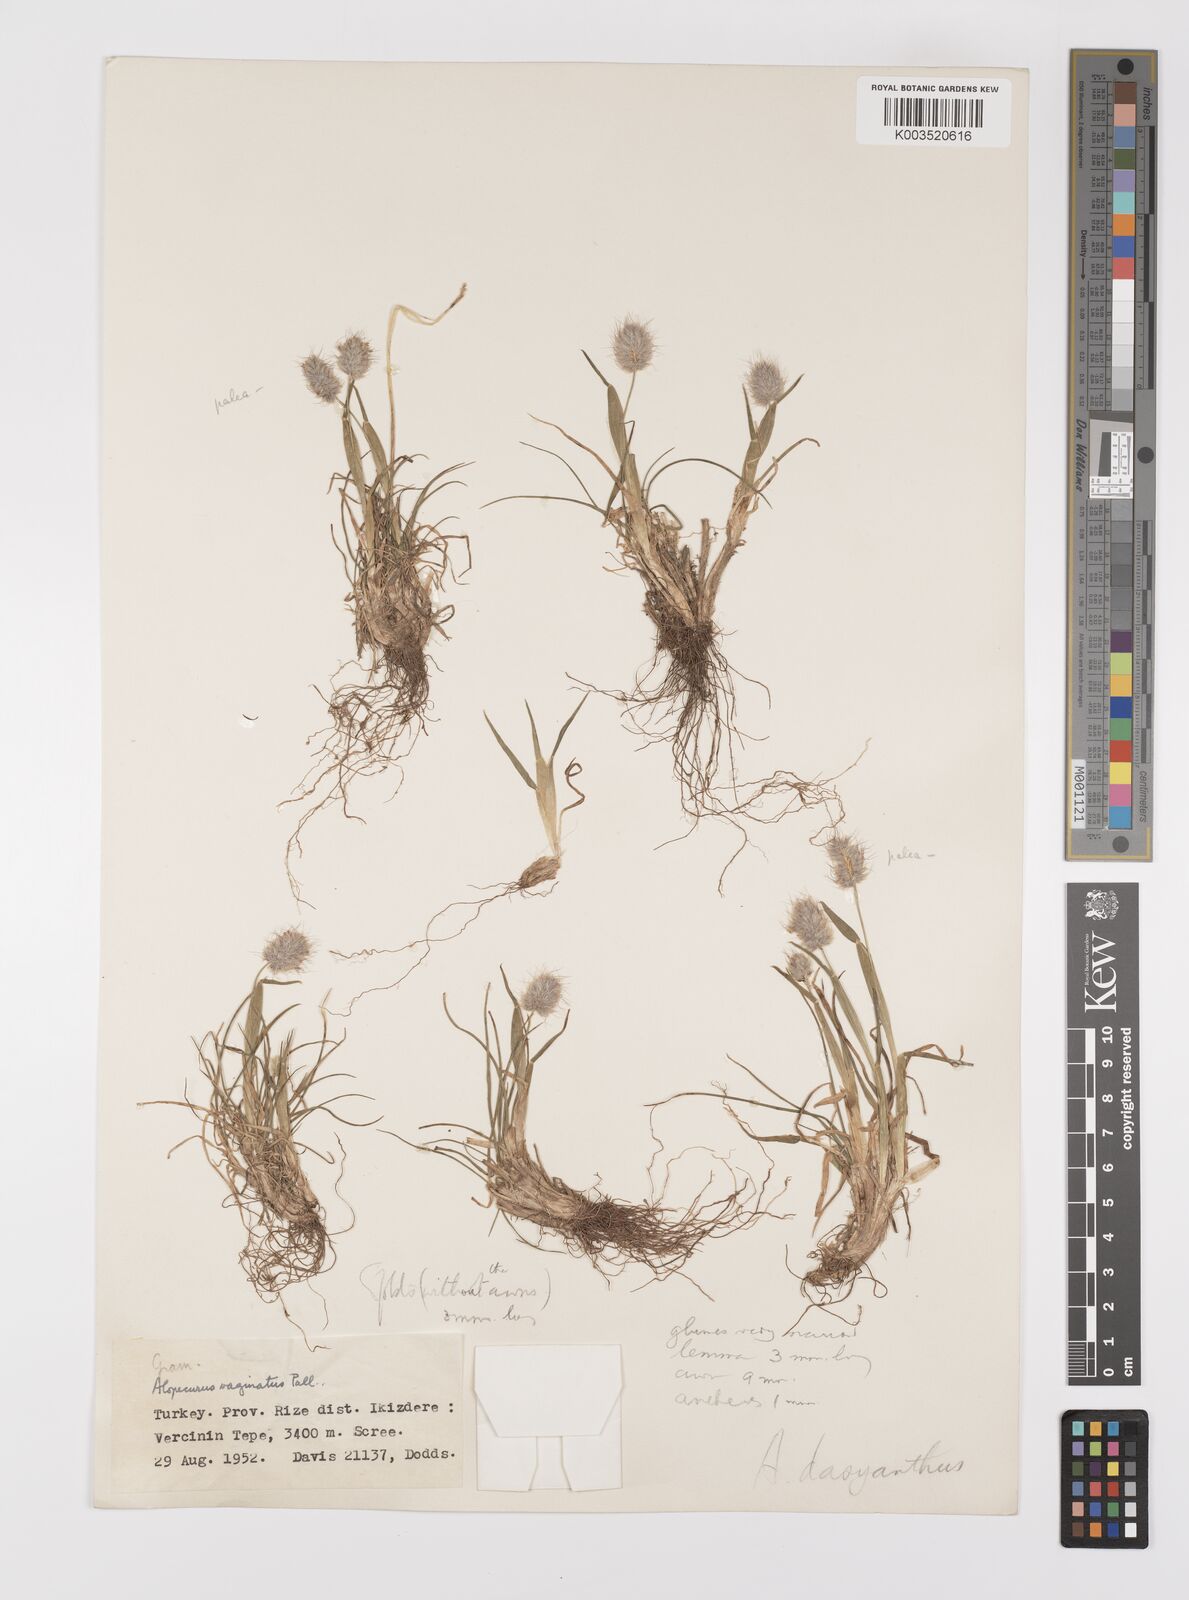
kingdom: Plantae
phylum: Tracheophyta
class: Liliopsida
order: Poales
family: Poaceae
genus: Alopecurus
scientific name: Alopecurus dasyanthus
